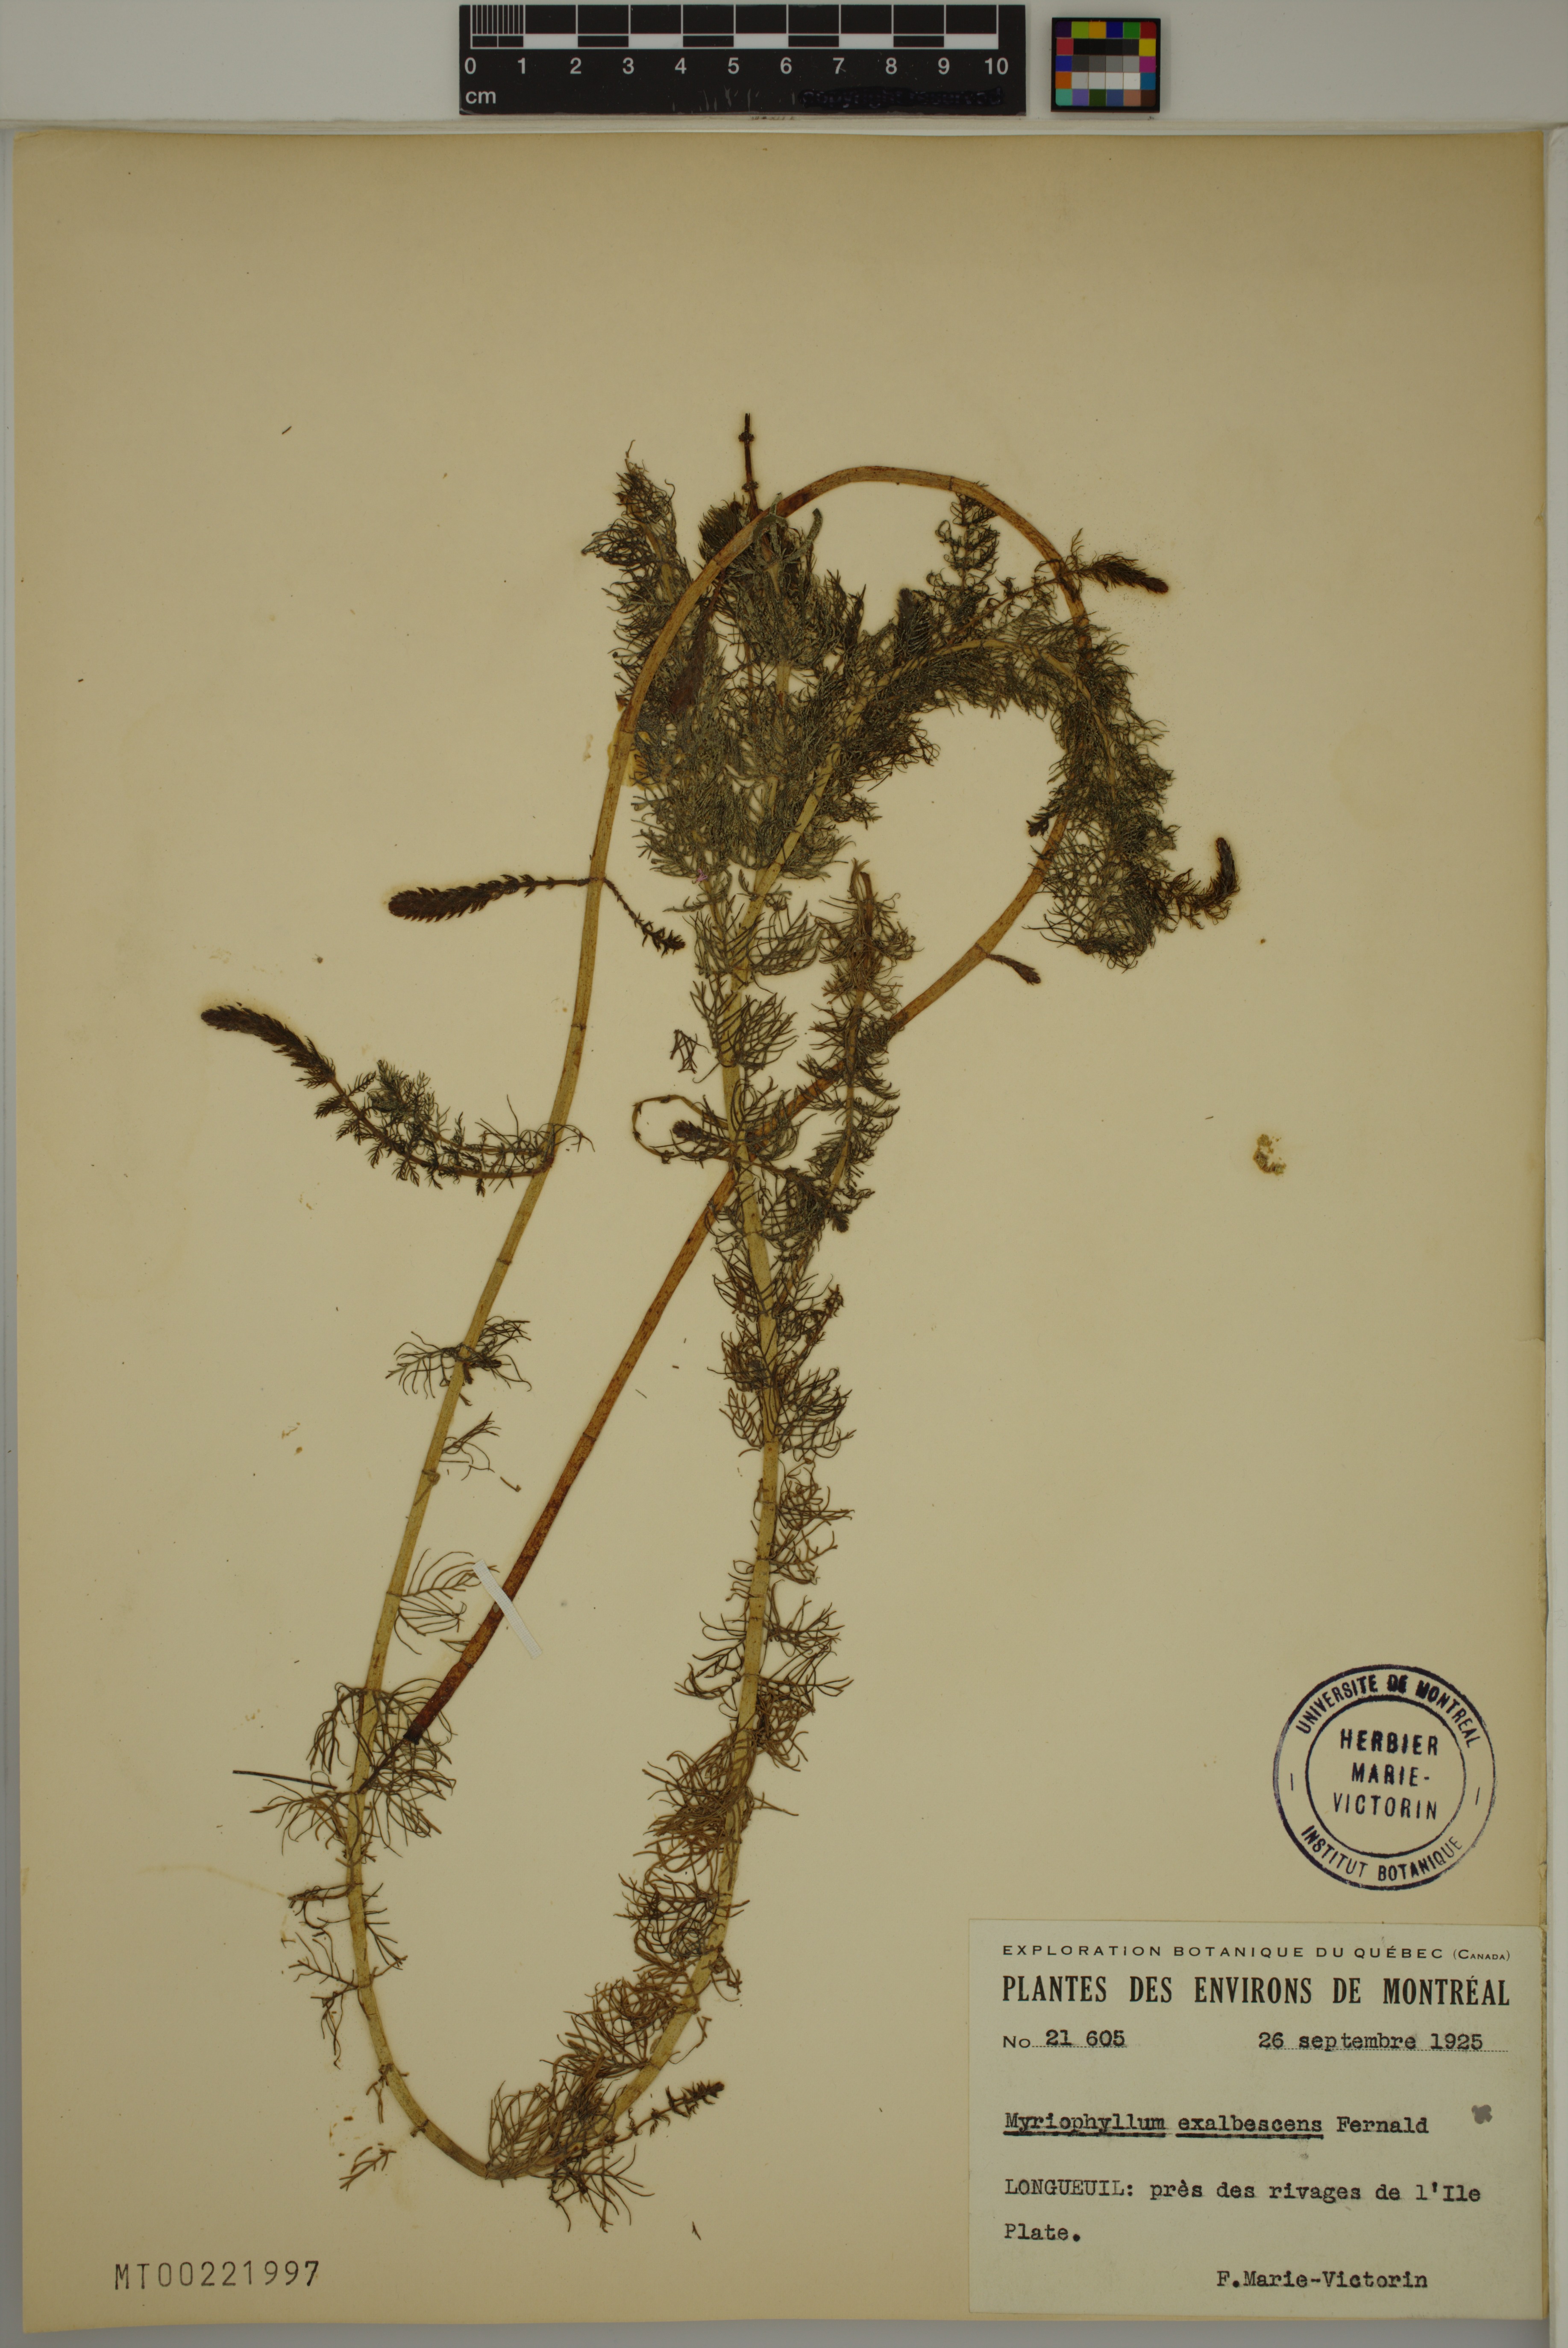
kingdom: Plantae
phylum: Tracheophyta
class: Magnoliopsida
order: Saxifragales
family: Haloragaceae
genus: Myriophyllum
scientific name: Myriophyllum sibiricum
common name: Siberian water-milfoil
